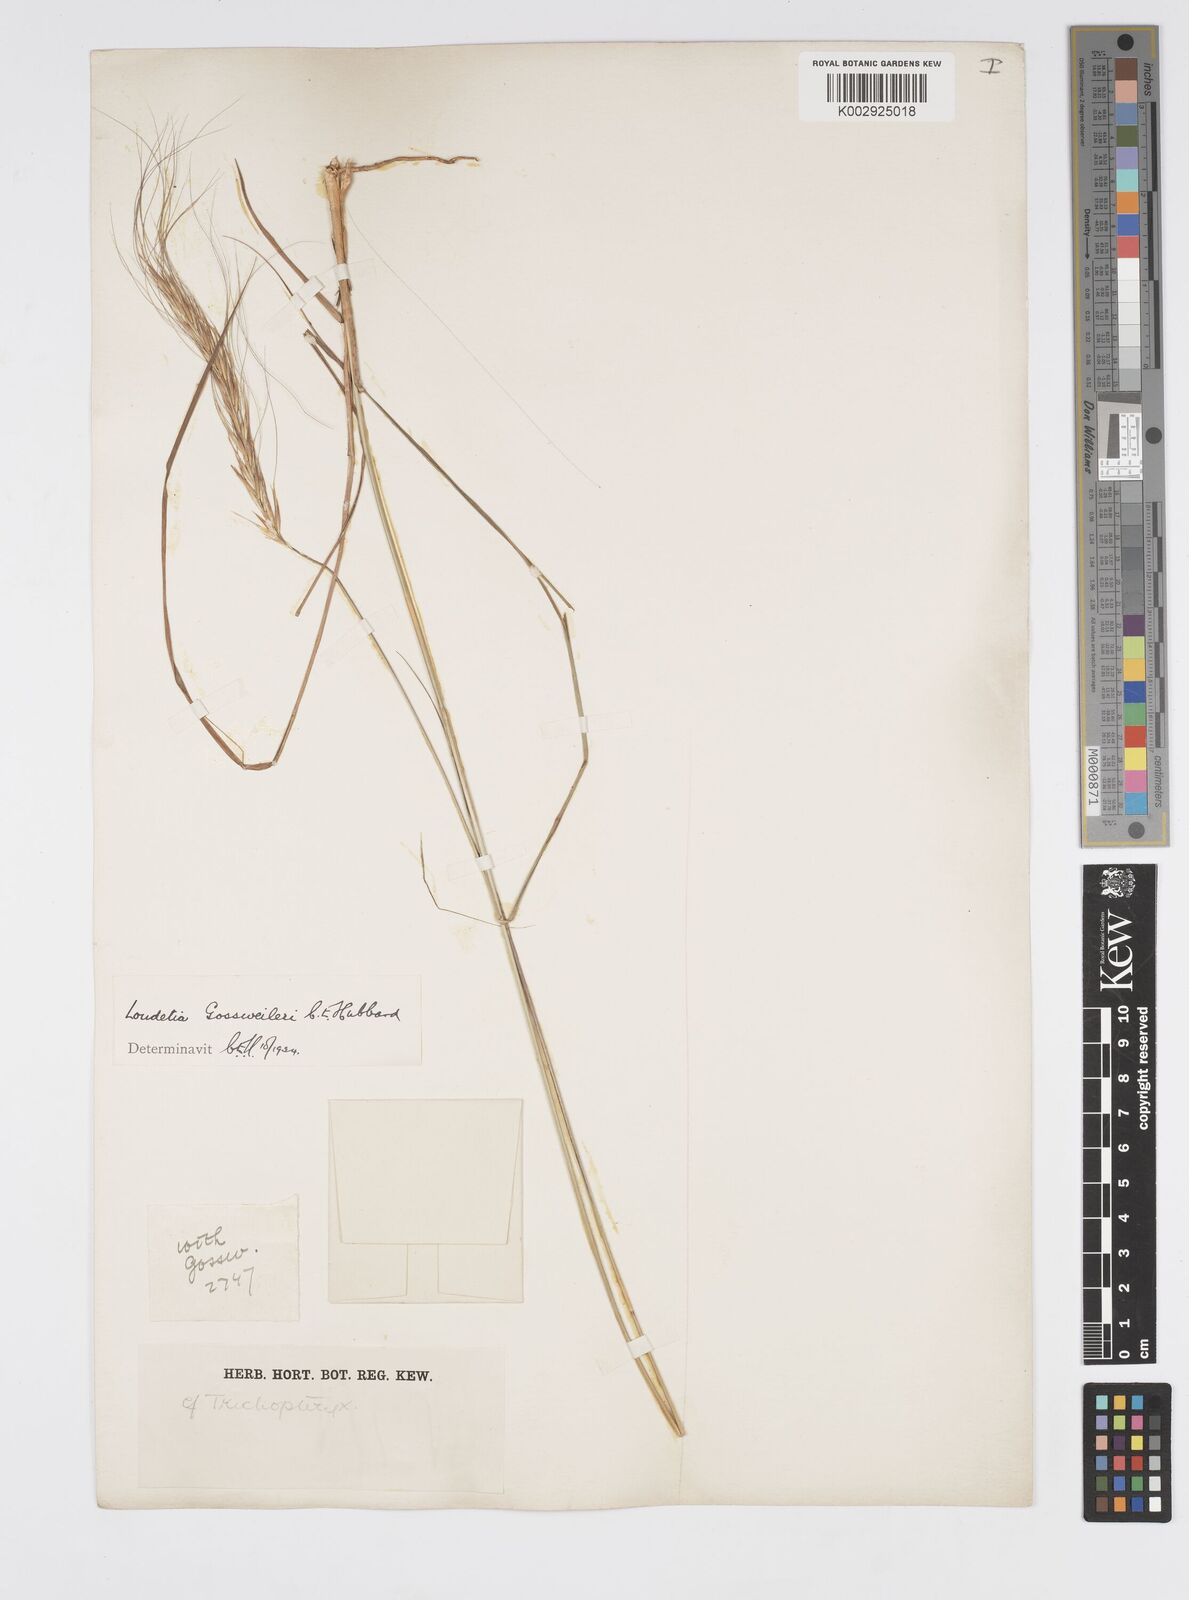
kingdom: Plantae
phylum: Tracheophyta
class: Liliopsida
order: Poales
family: Poaceae
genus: Loudetia
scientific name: Loudetia densispica
